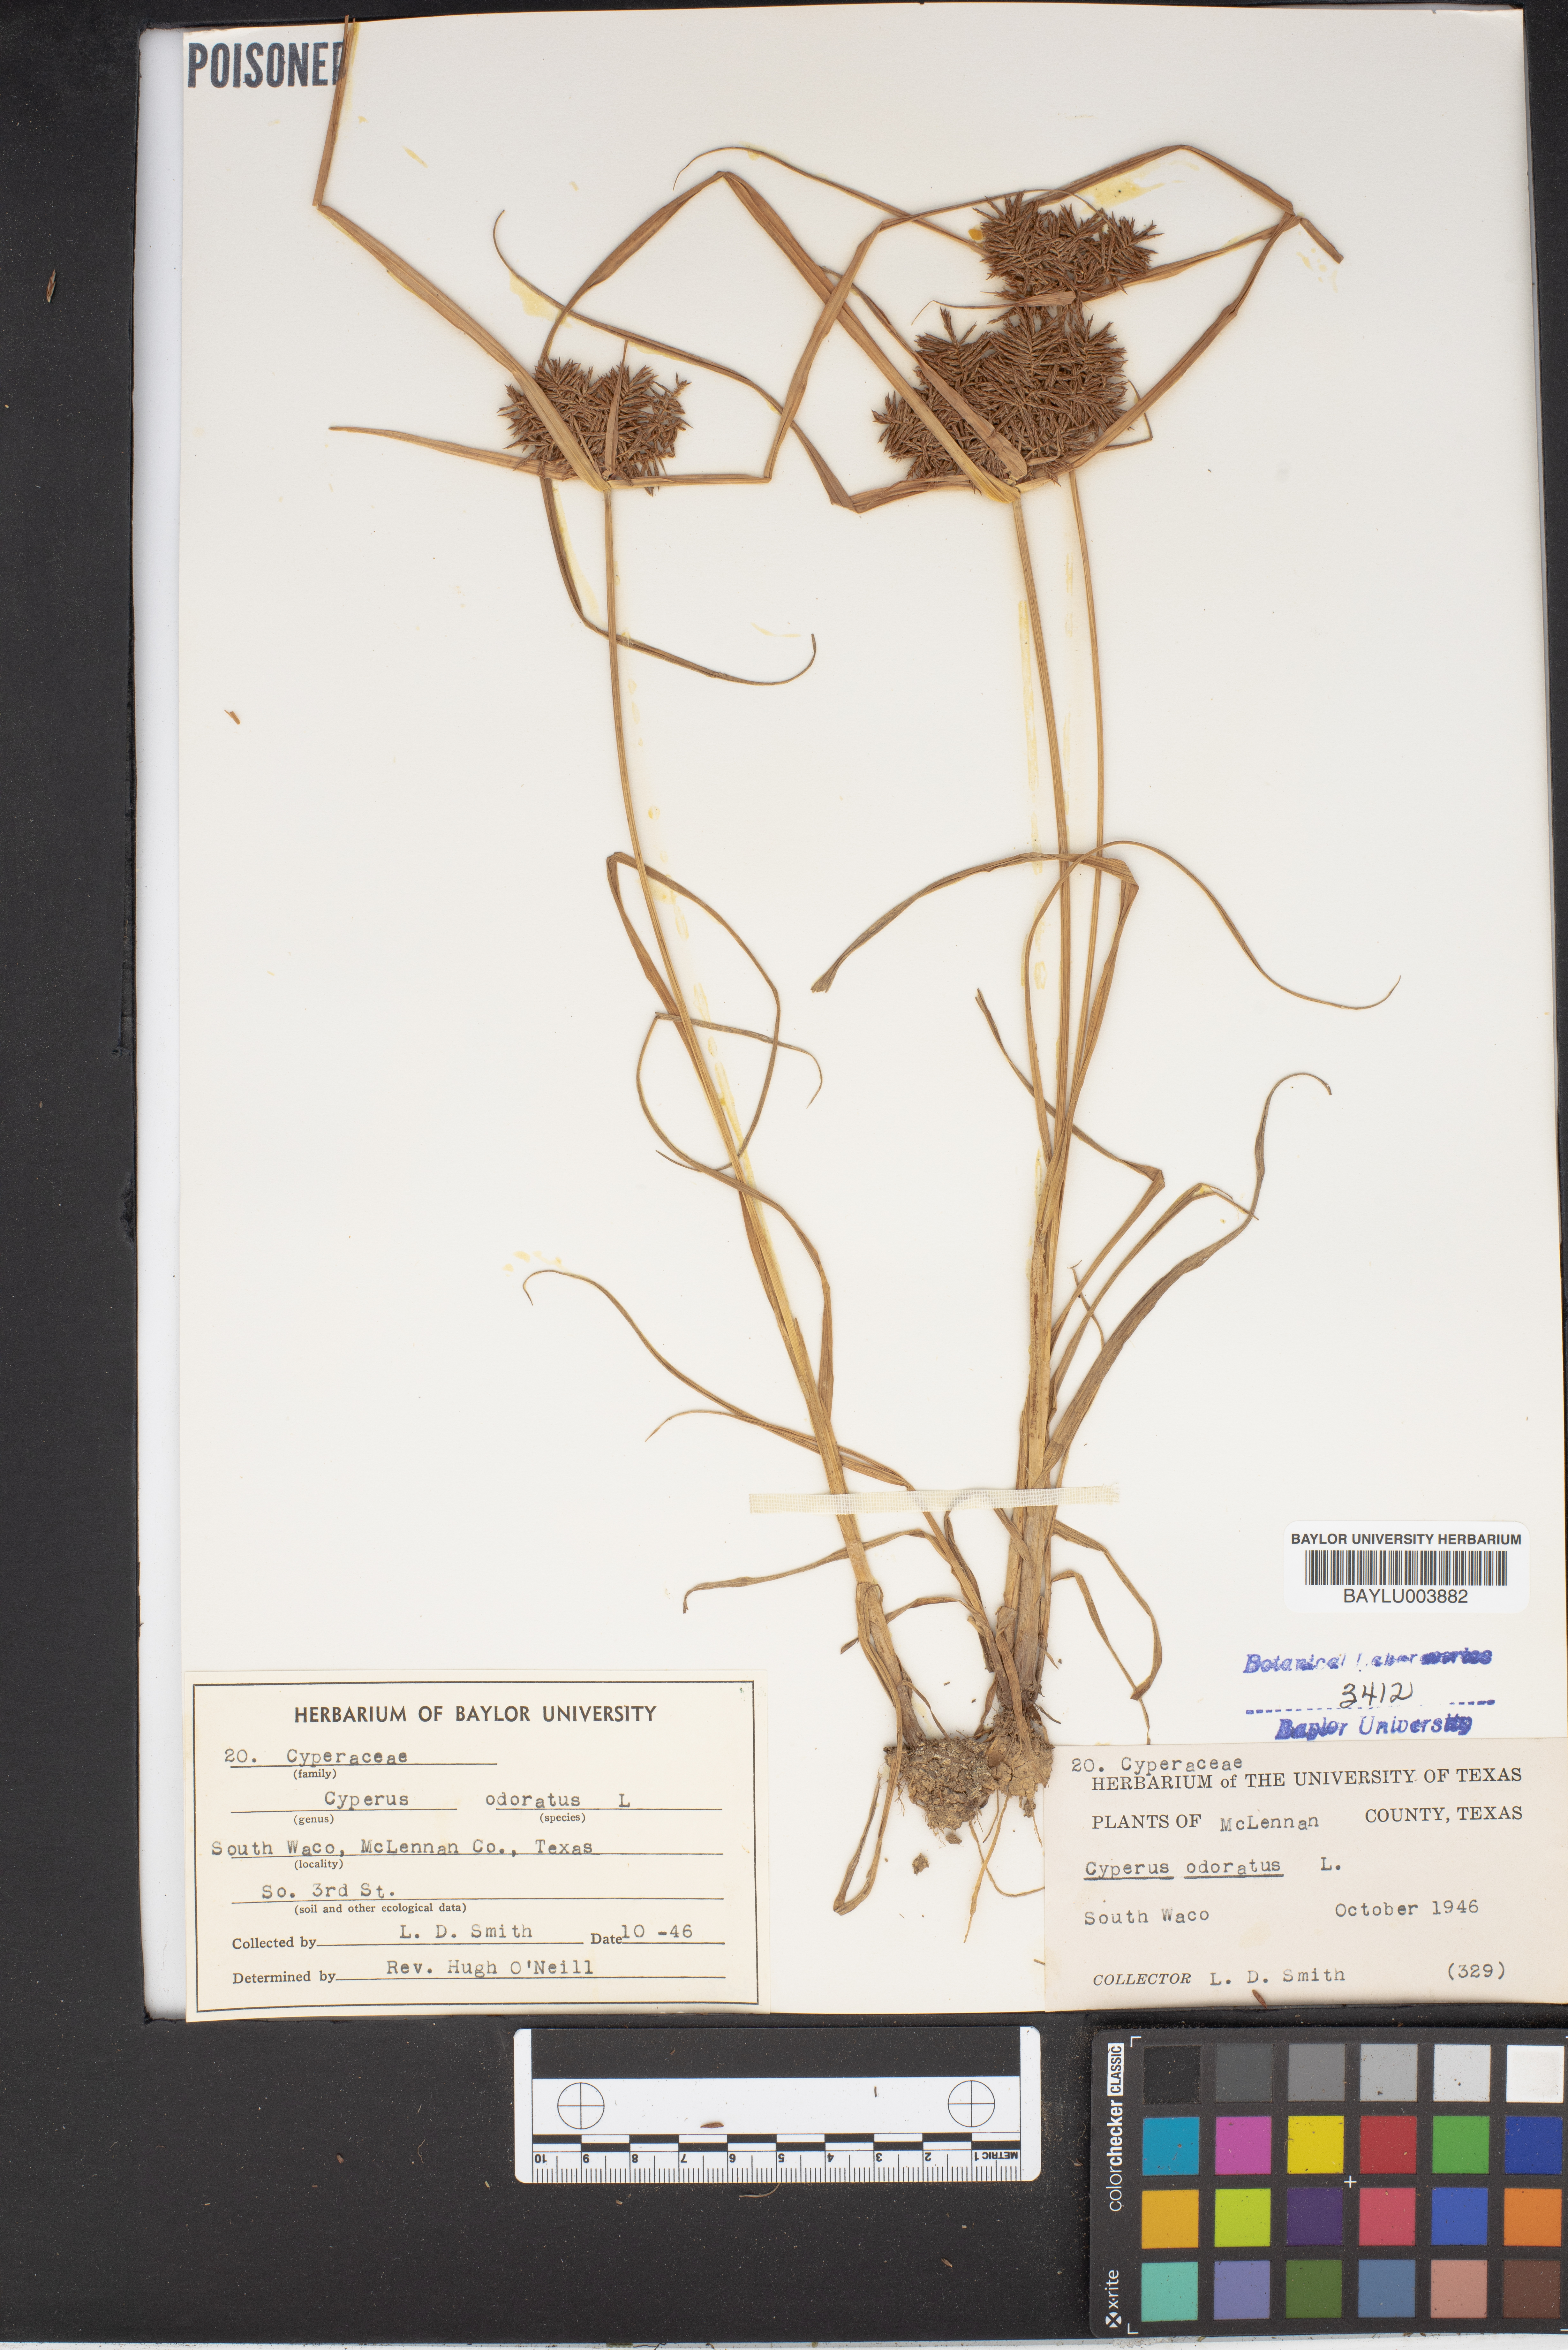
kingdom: Plantae
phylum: Tracheophyta
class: Liliopsida
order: Poales
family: Cyperaceae
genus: Cyperus
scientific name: Cyperus odoratus
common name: Fragrant flatsedge
